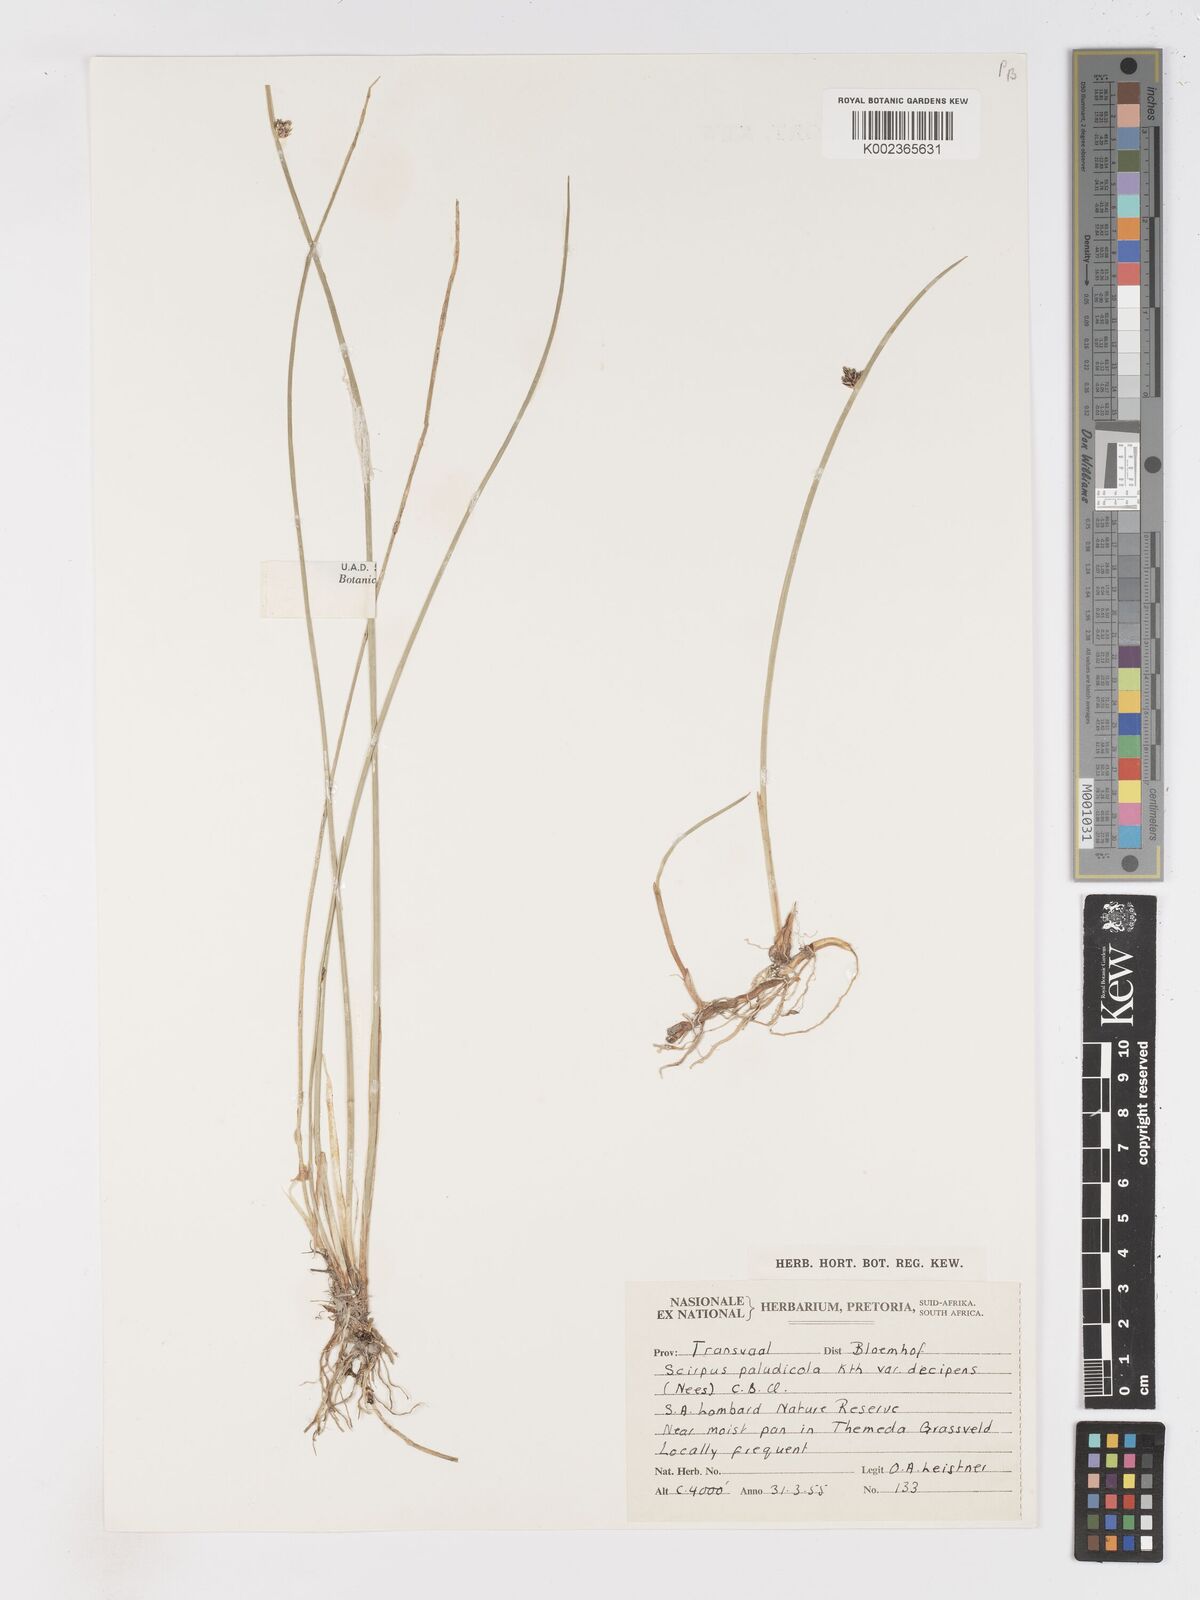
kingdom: Plantae
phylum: Tracheophyta
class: Liliopsida
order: Poales
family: Cyperaceae
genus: Schoenoplectus
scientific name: Schoenoplectus
